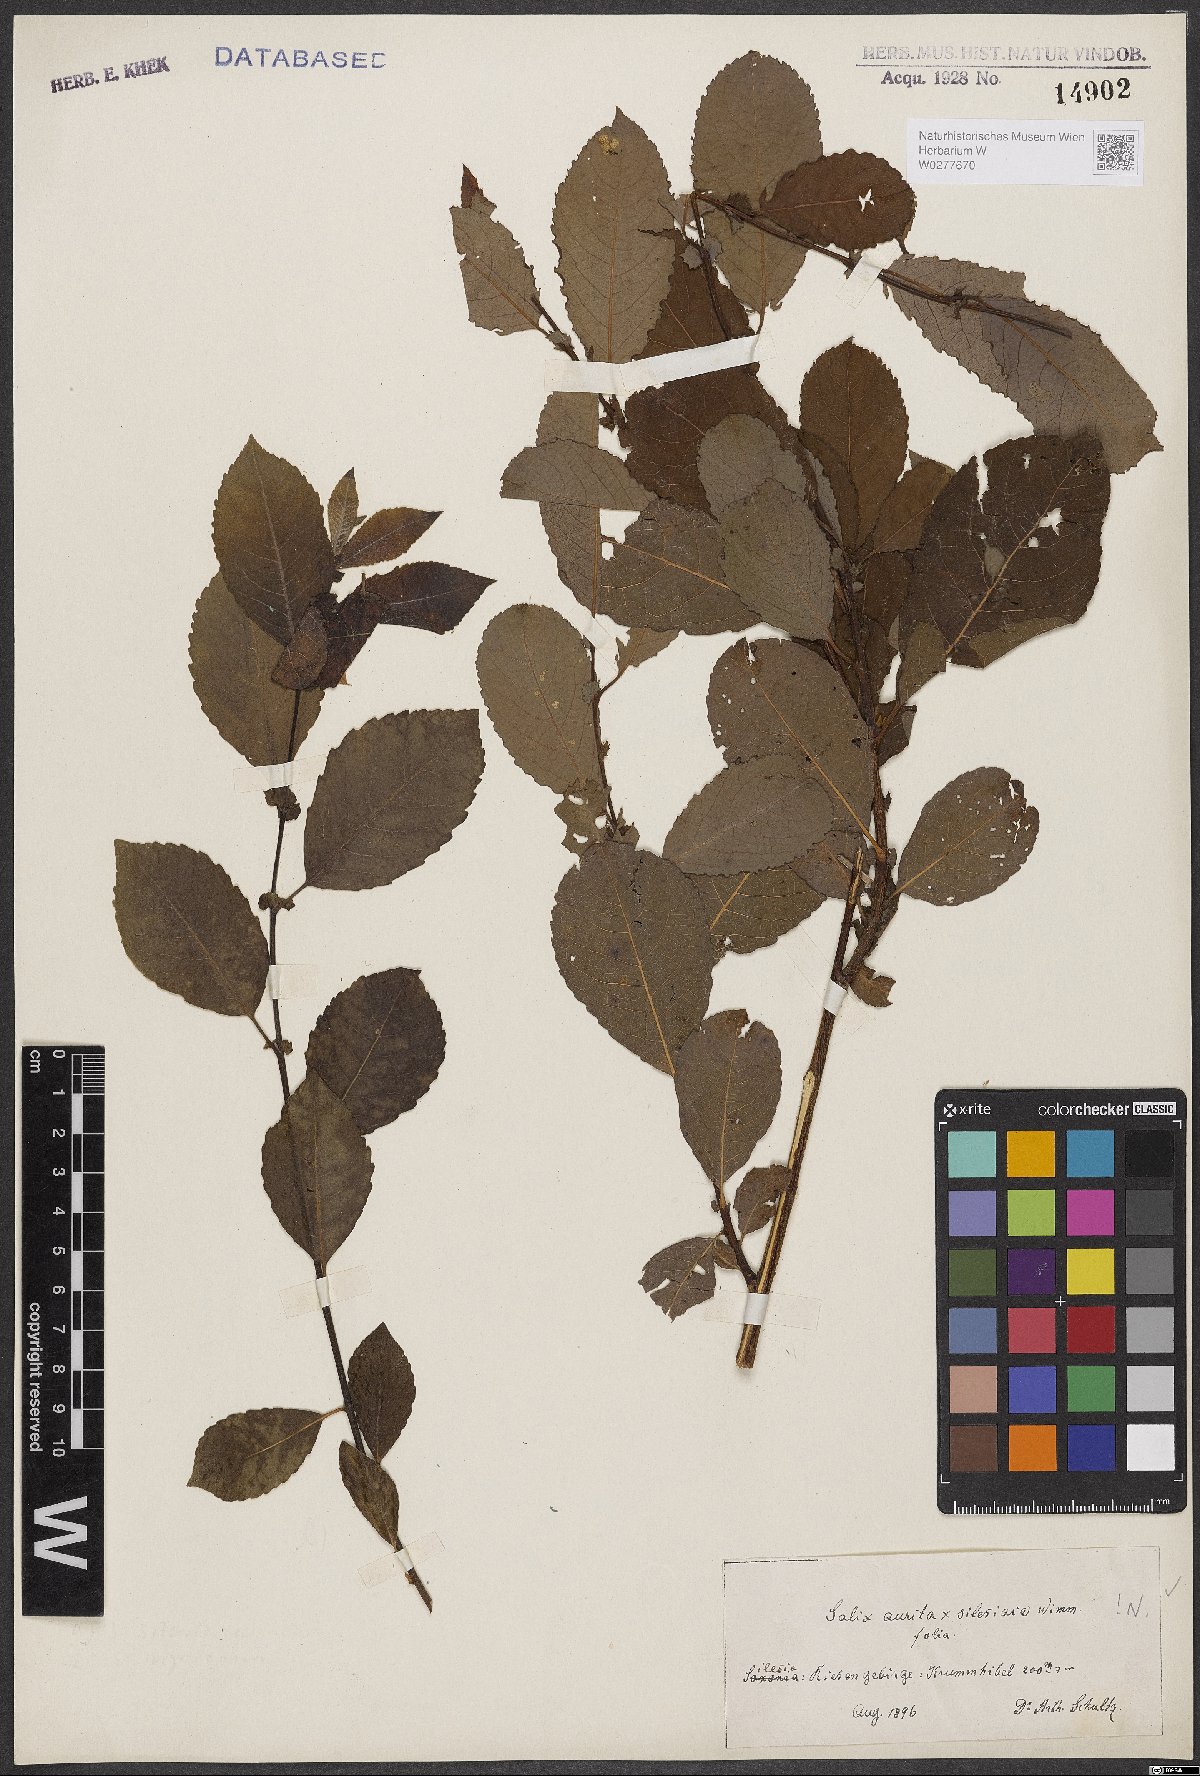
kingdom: Plantae
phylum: Tracheophyta
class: Magnoliopsida
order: Malpighiales
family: Salicaceae
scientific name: Salicaceae
